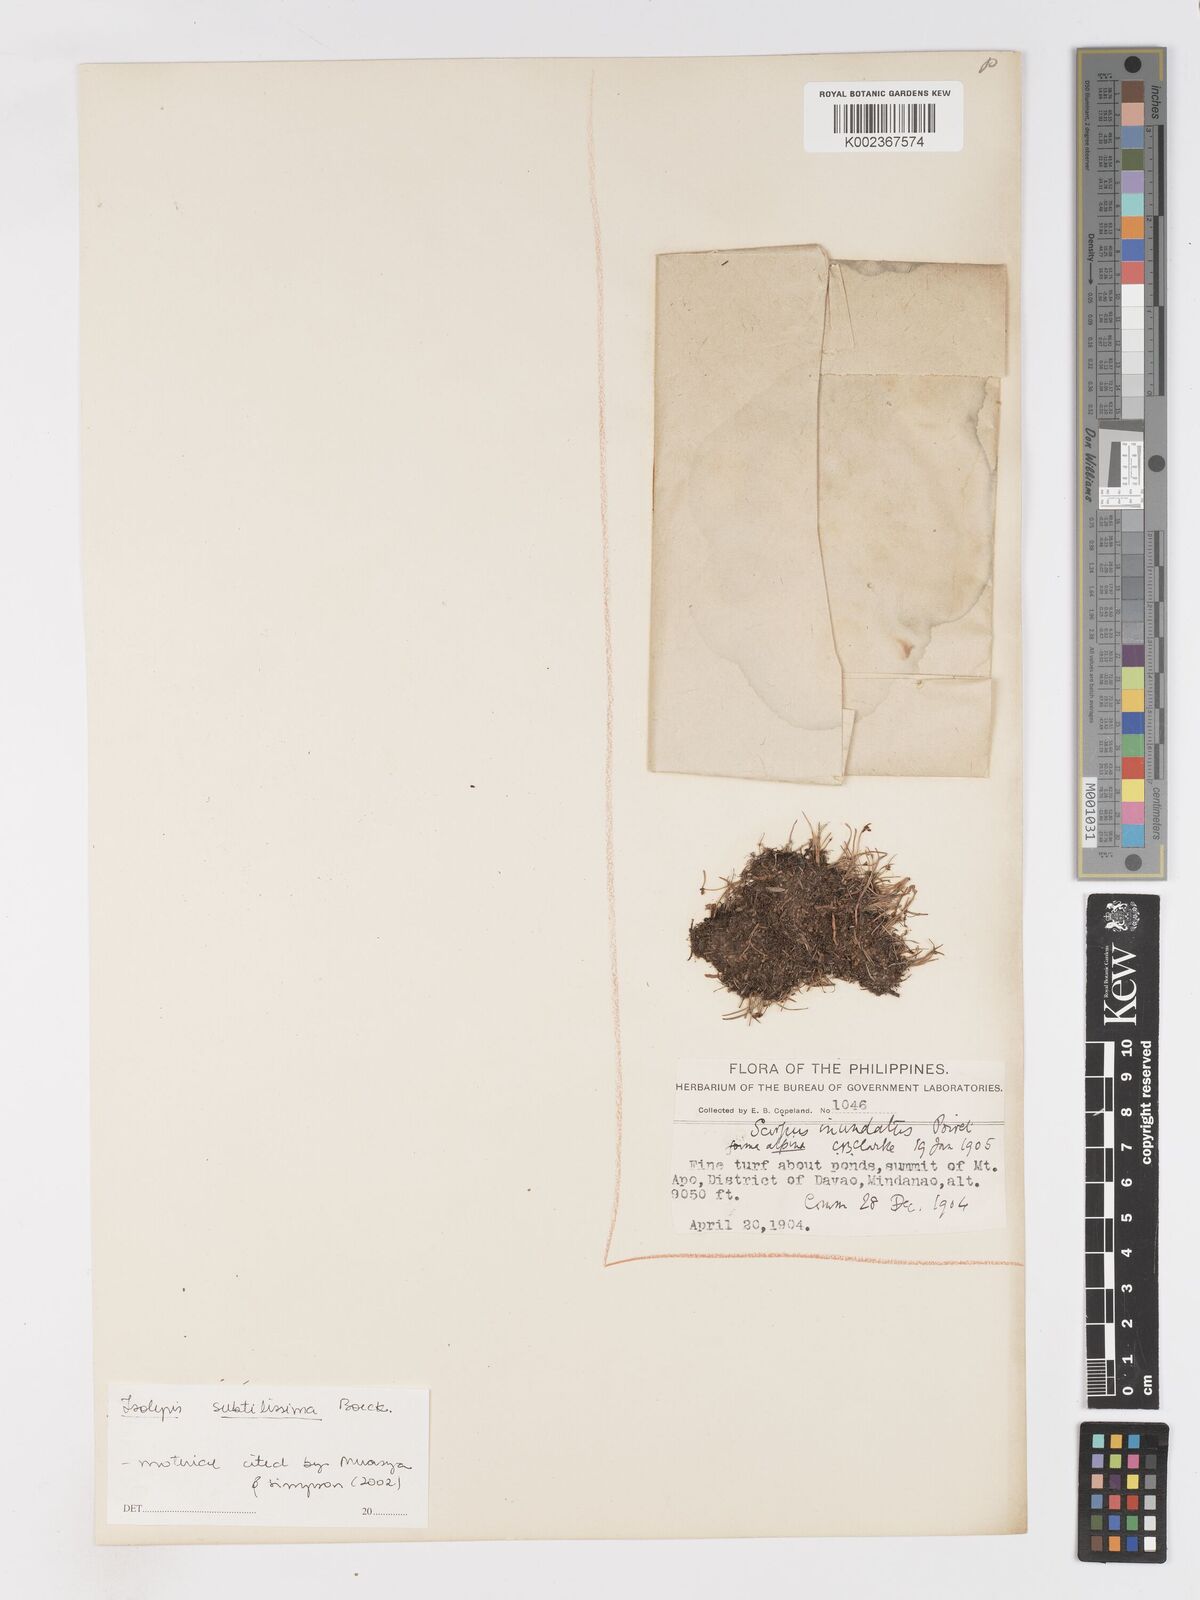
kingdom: Plantae
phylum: Tracheophyta
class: Liliopsida
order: Poales
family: Cyperaceae
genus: Isolepis
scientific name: Isolepis subtilissima
